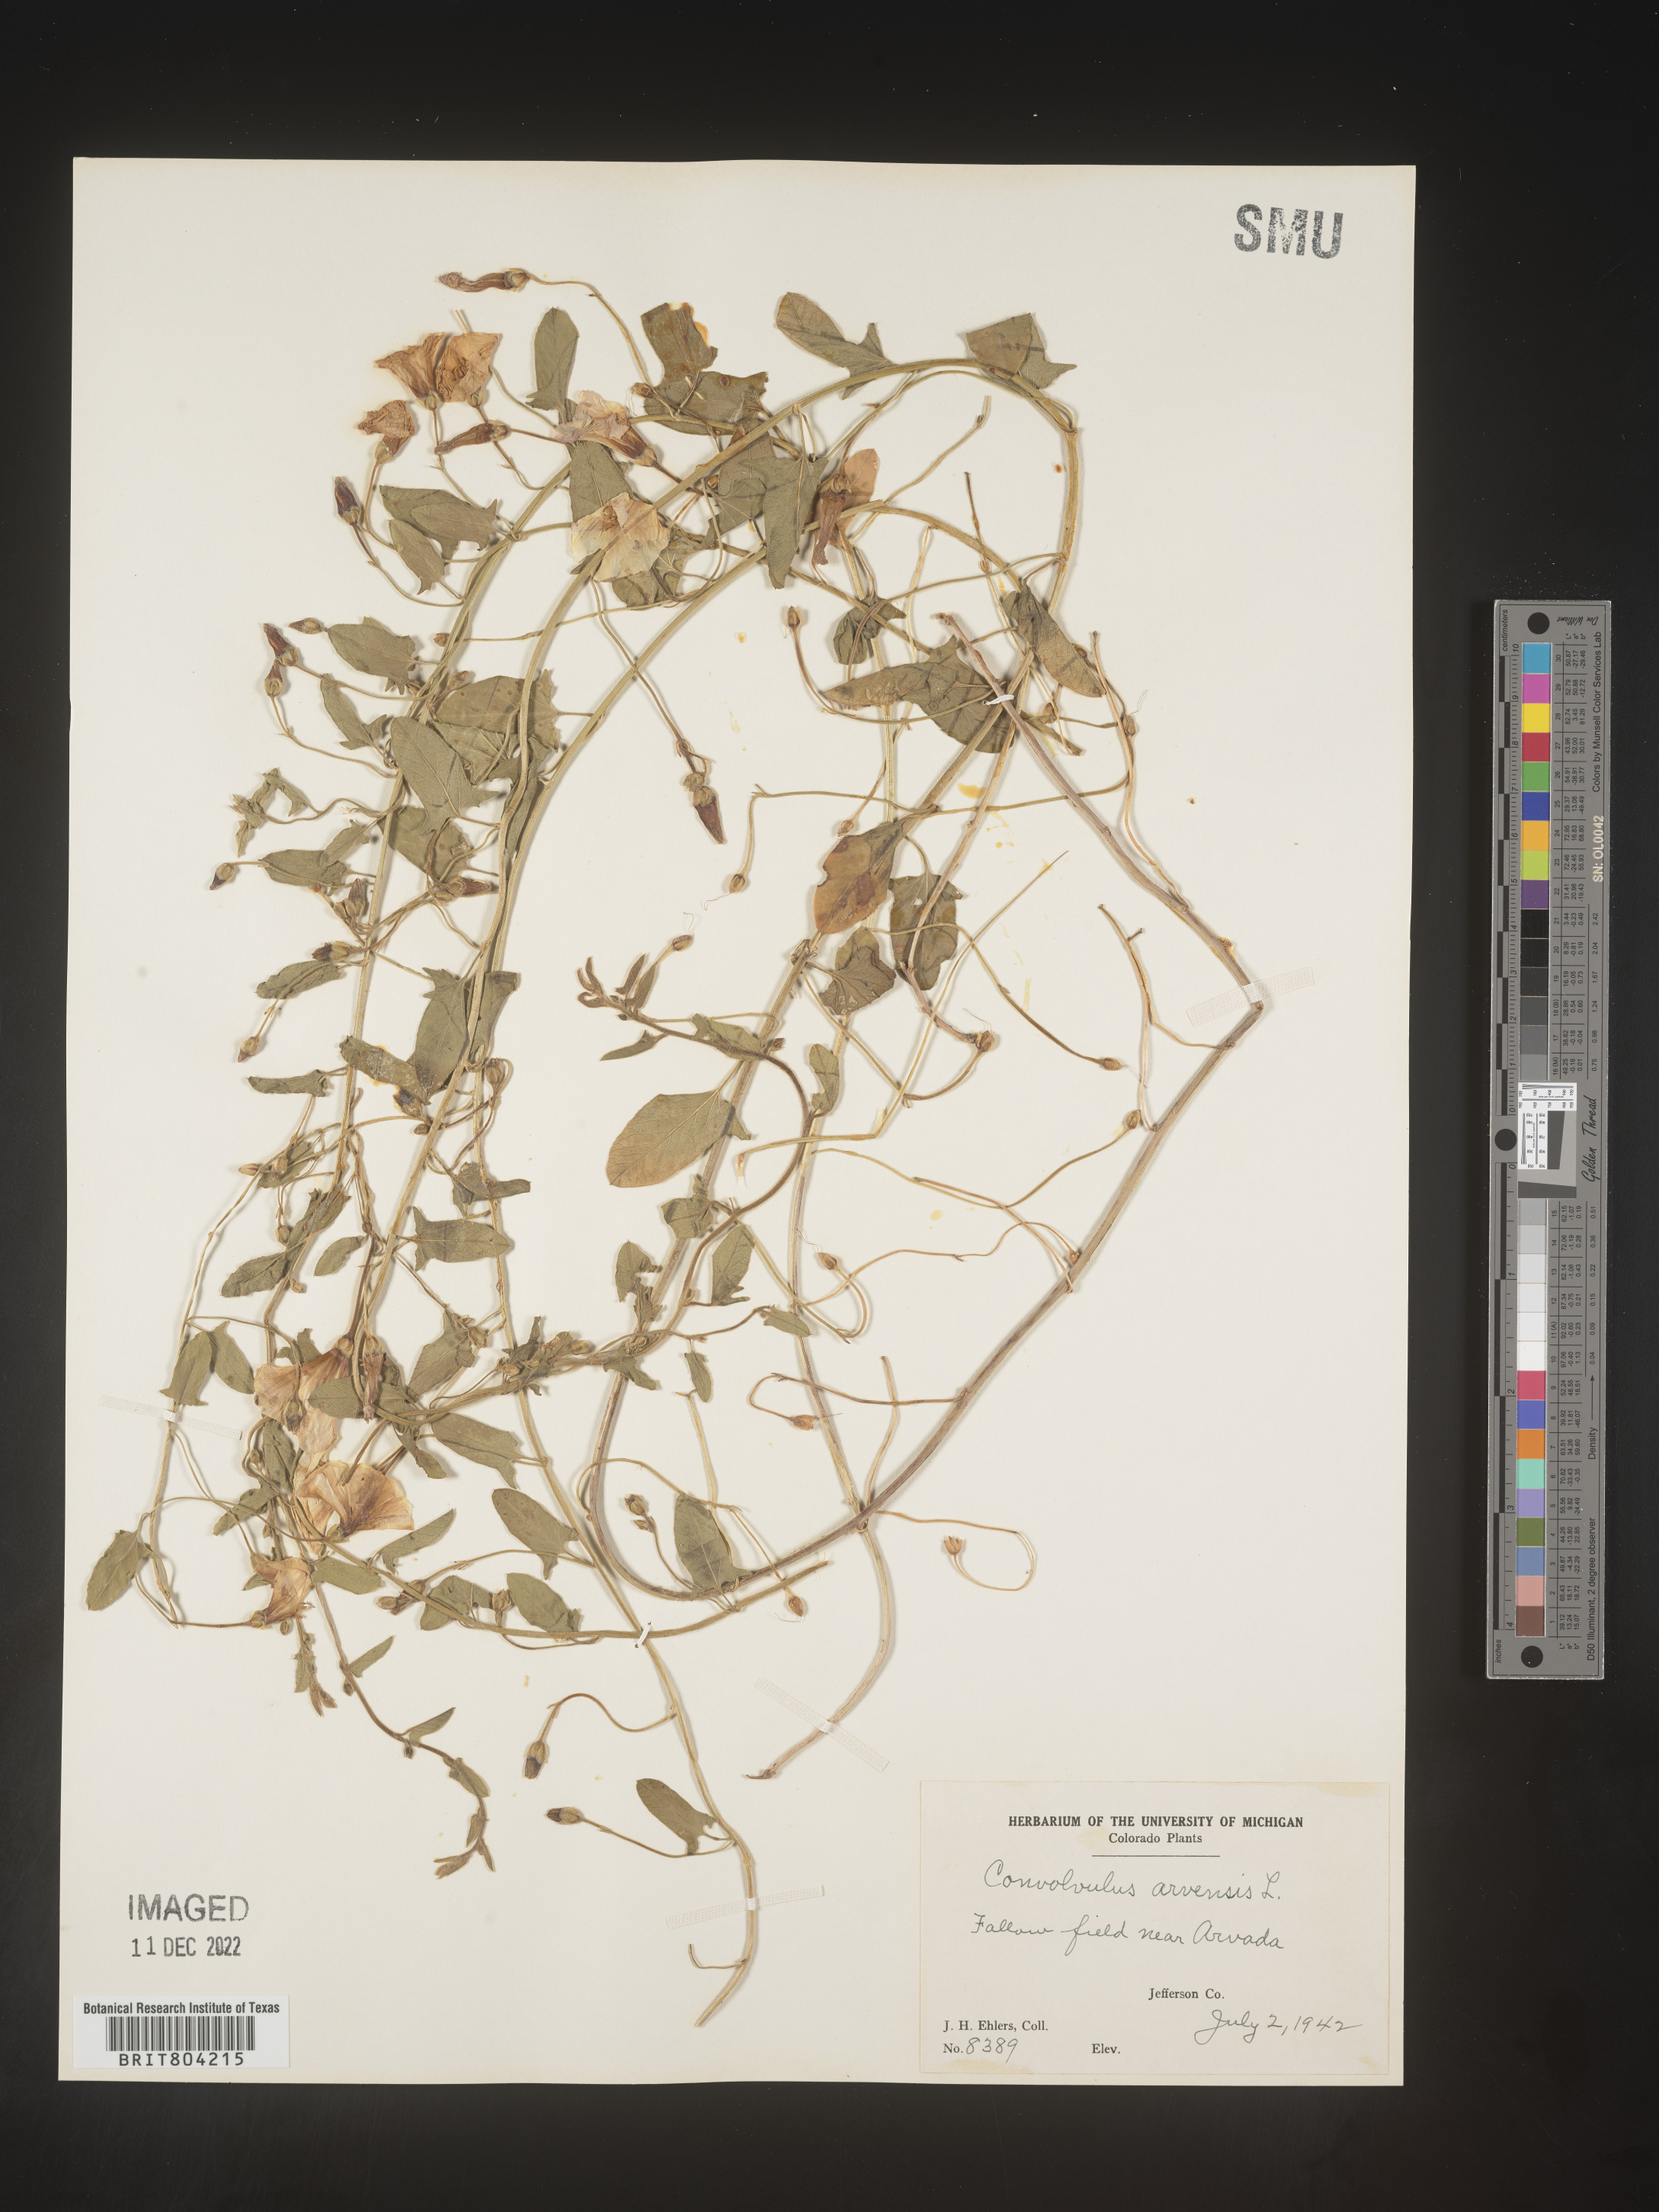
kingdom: Plantae
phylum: Tracheophyta
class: Magnoliopsida
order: Solanales
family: Convolvulaceae
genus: Convolvulus
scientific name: Convolvulus arvensis
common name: Field bindweed
